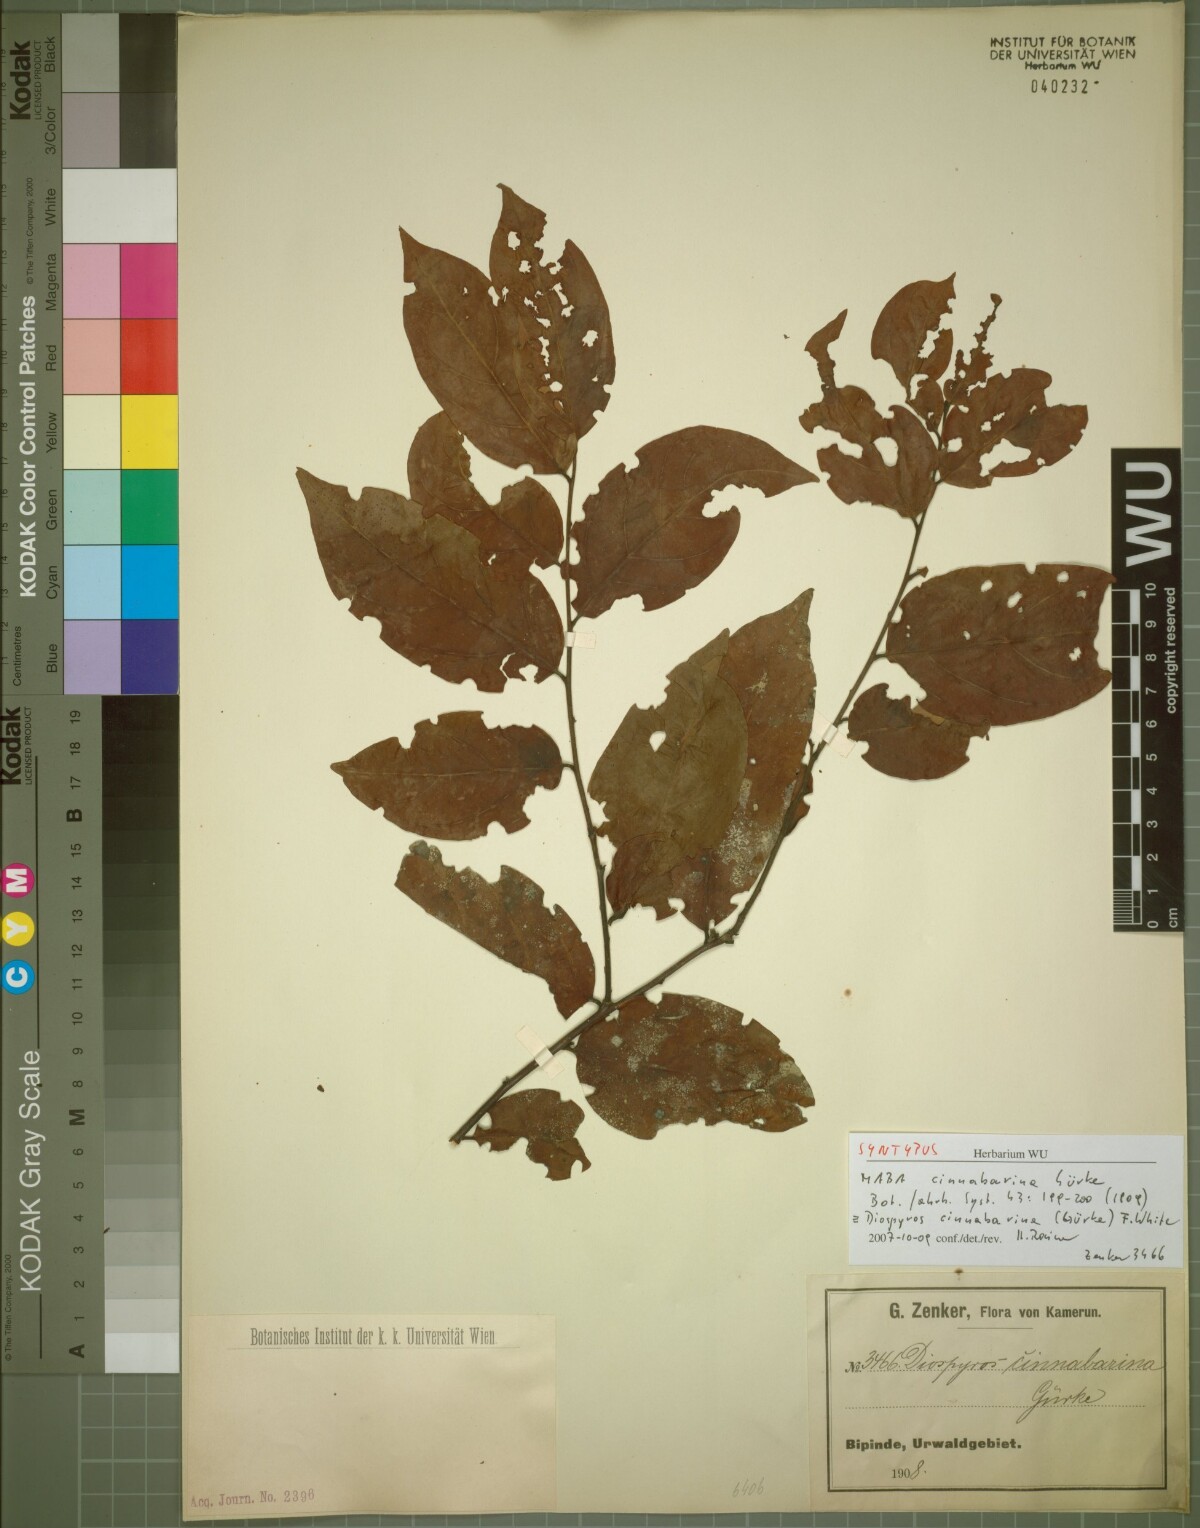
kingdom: Plantae
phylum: Tracheophyta
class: Magnoliopsida
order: Ericales
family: Ebenaceae
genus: Diospyros
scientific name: Diospyros cinnabarina
